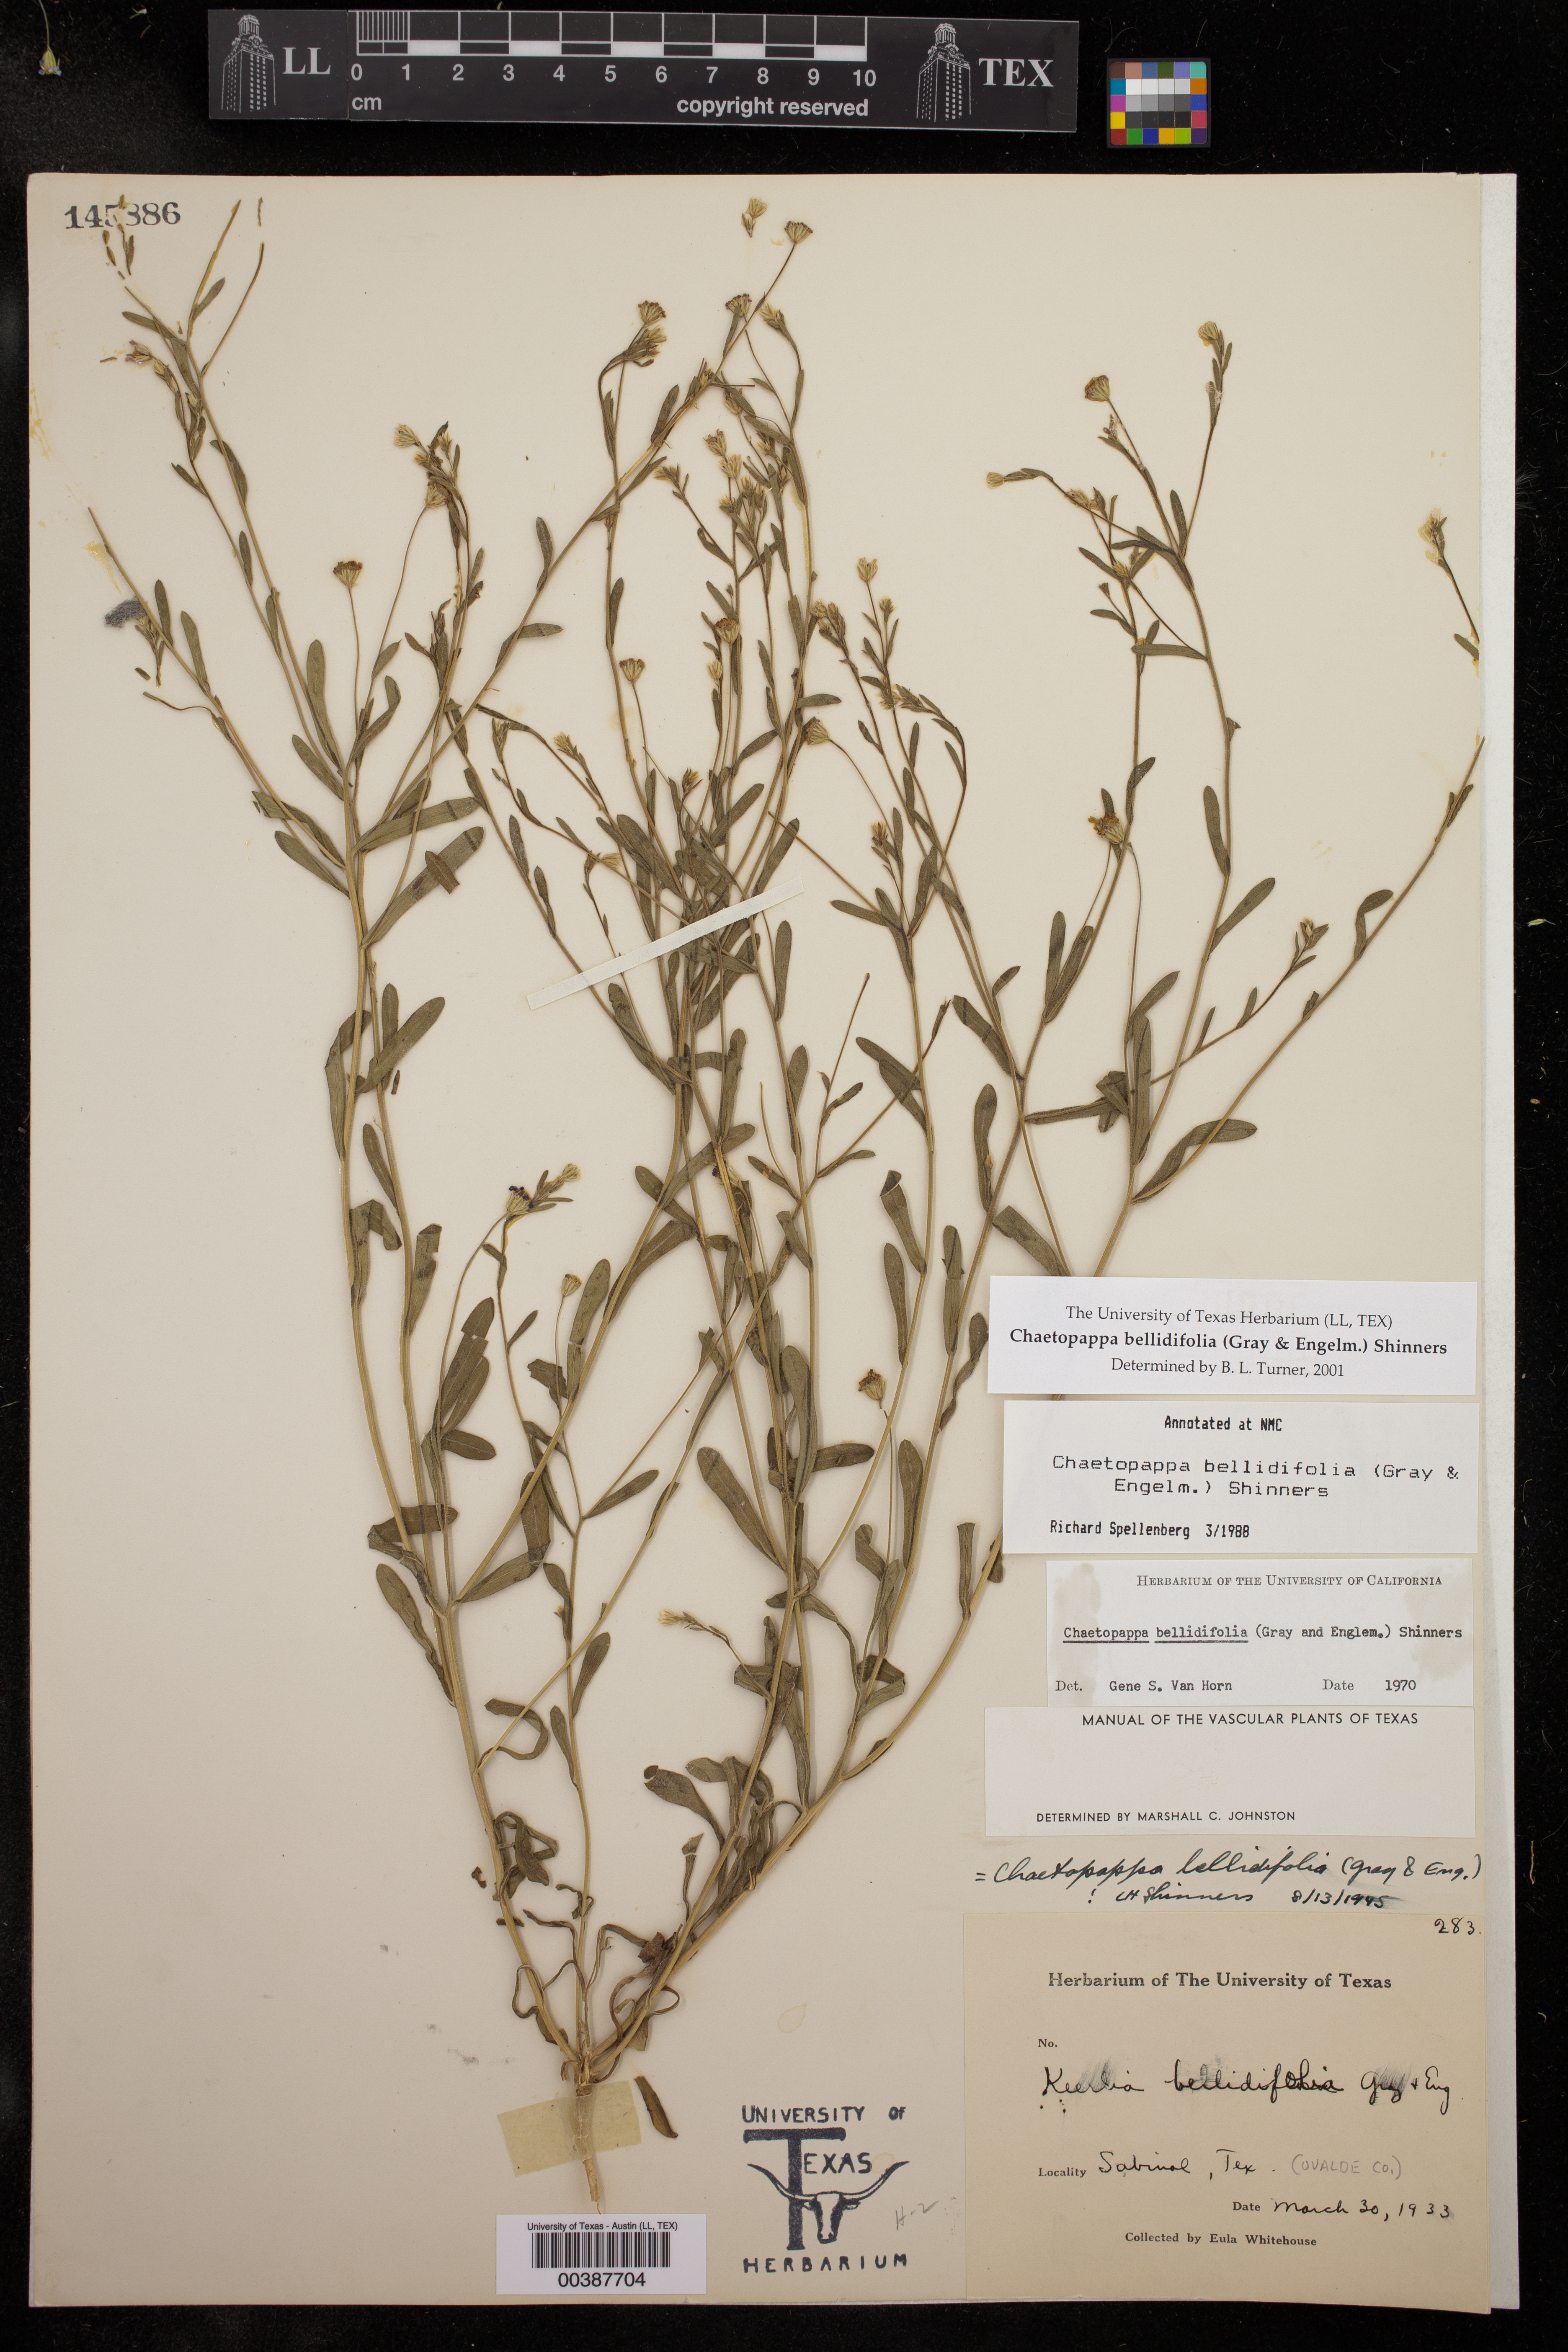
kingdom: Plantae
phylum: Tracheophyta
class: Magnoliopsida
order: Asterales
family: Asteraceae
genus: Chaetopappa
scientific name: Chaetopappa bellidifolia
